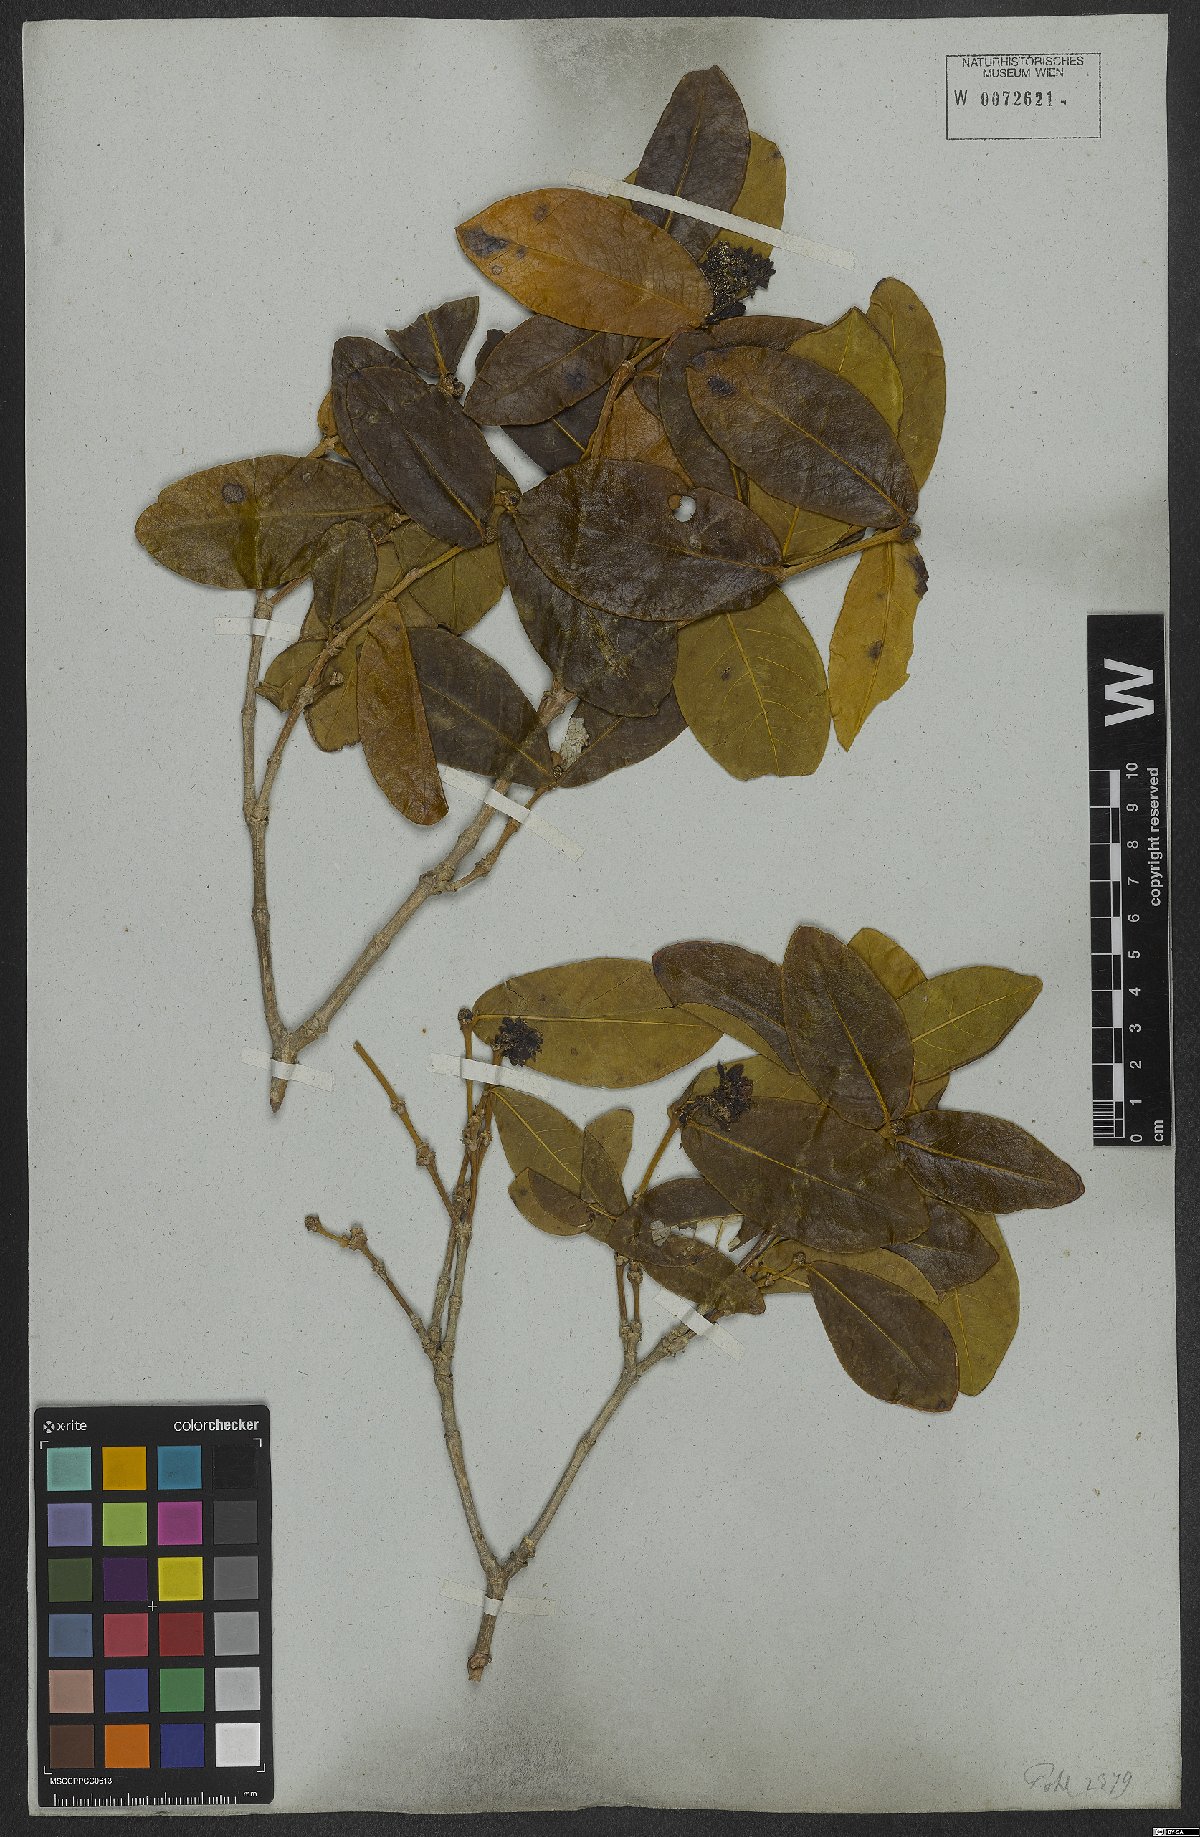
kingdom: Plantae
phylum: Tracheophyta
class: Magnoliopsida
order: Gentianales
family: Rubiaceae
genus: Rudgea
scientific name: Rudgea erioloba
